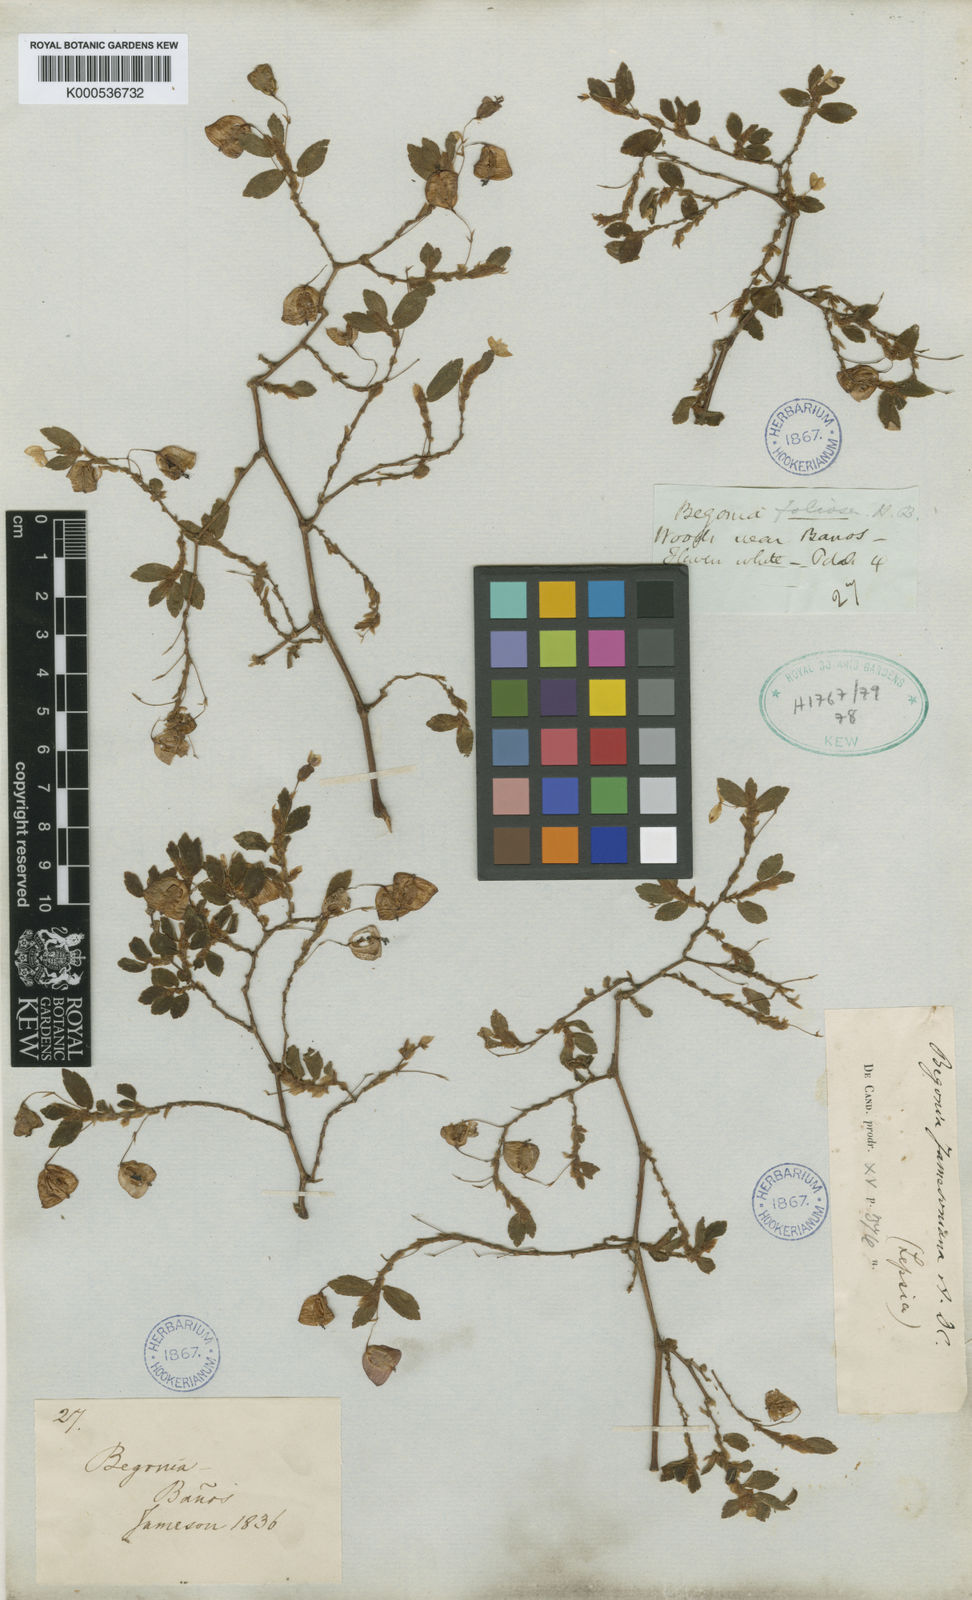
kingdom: Plantae
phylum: Tracheophyta
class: Magnoliopsida
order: Cucurbitales
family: Begoniaceae
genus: Begonia
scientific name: Begonia foliosa
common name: Fern begonia
